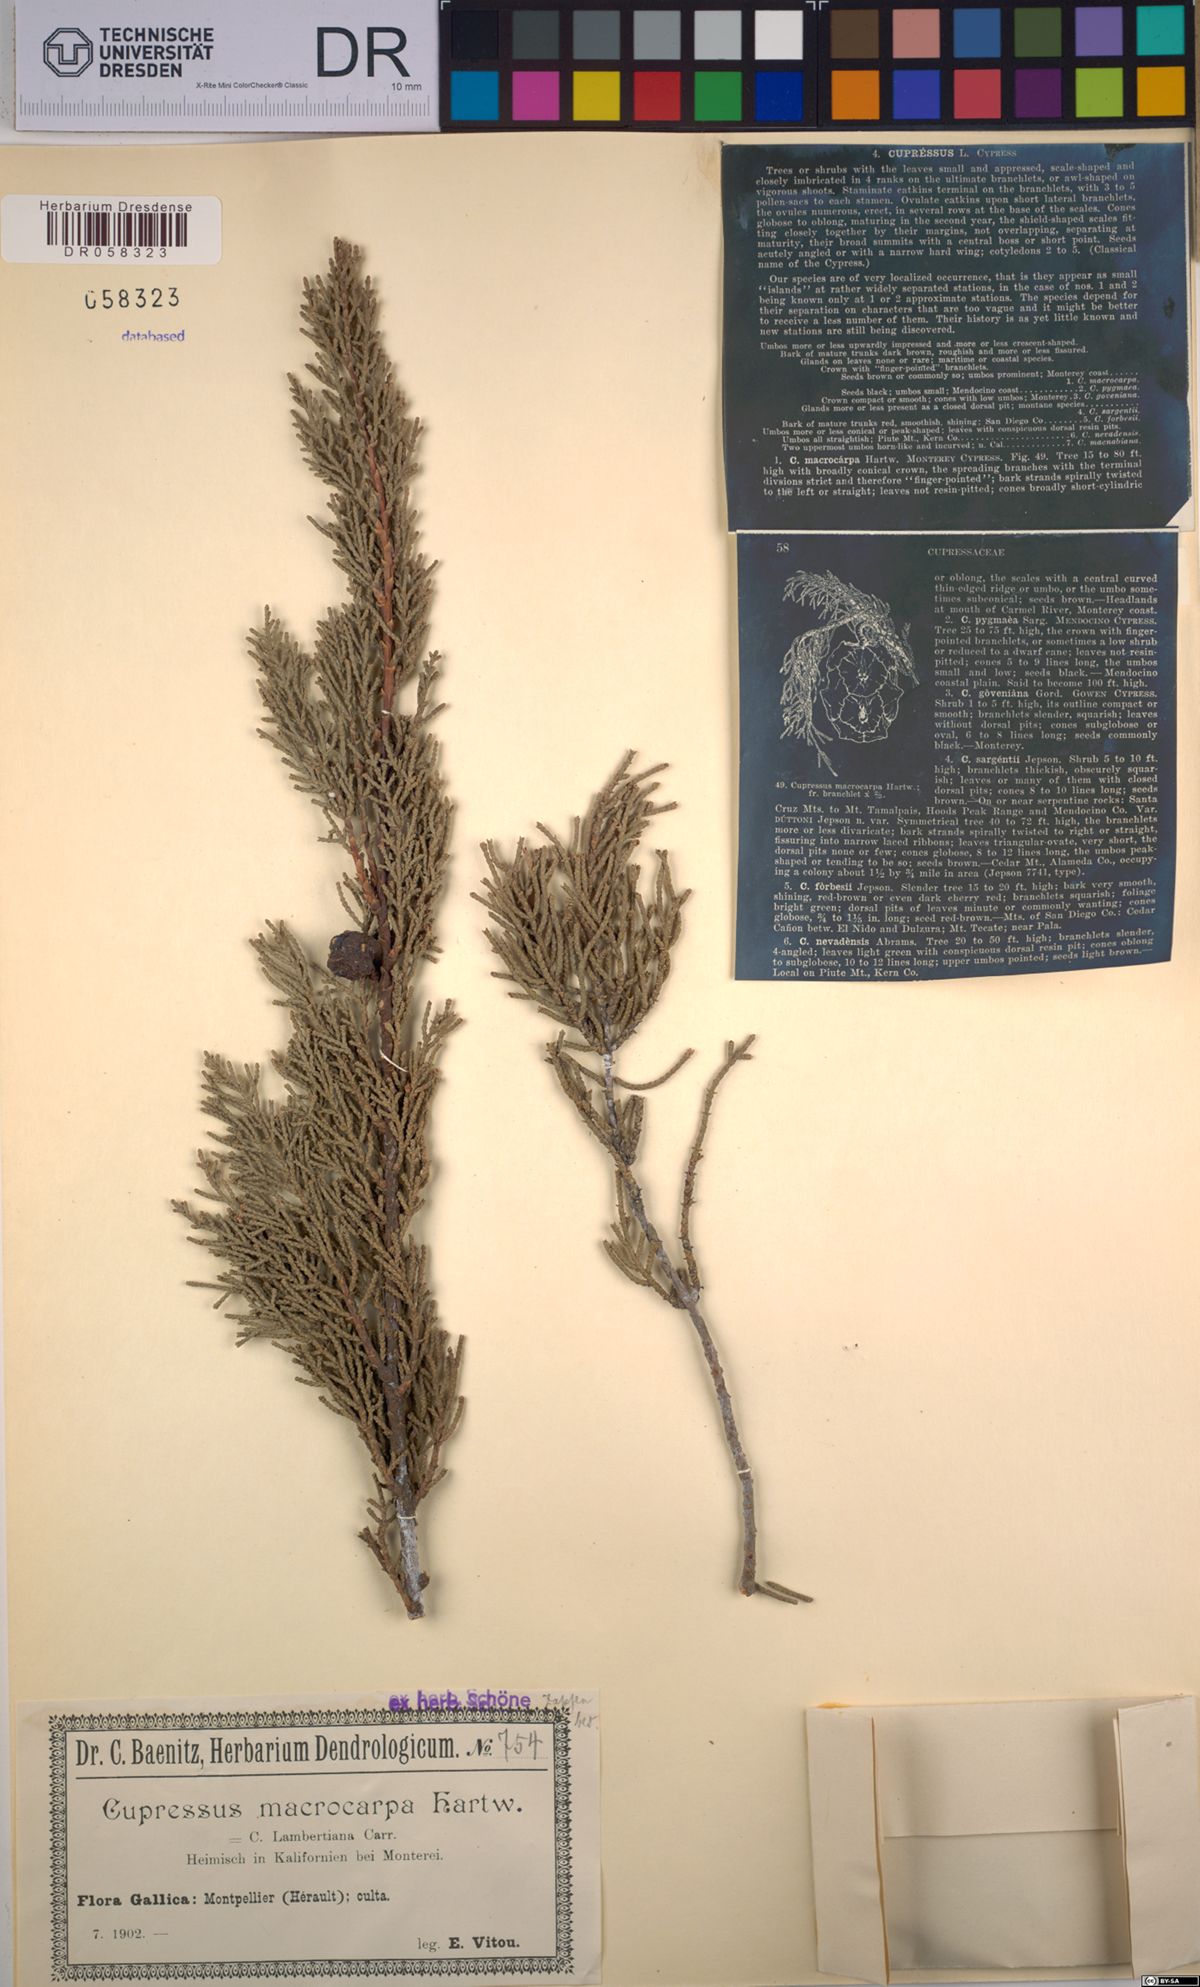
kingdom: Plantae
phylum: Tracheophyta
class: Pinopsida
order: Pinales
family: Cupressaceae
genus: Cupressus
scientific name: Cupressus macrocarpa
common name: Monterey cypress
